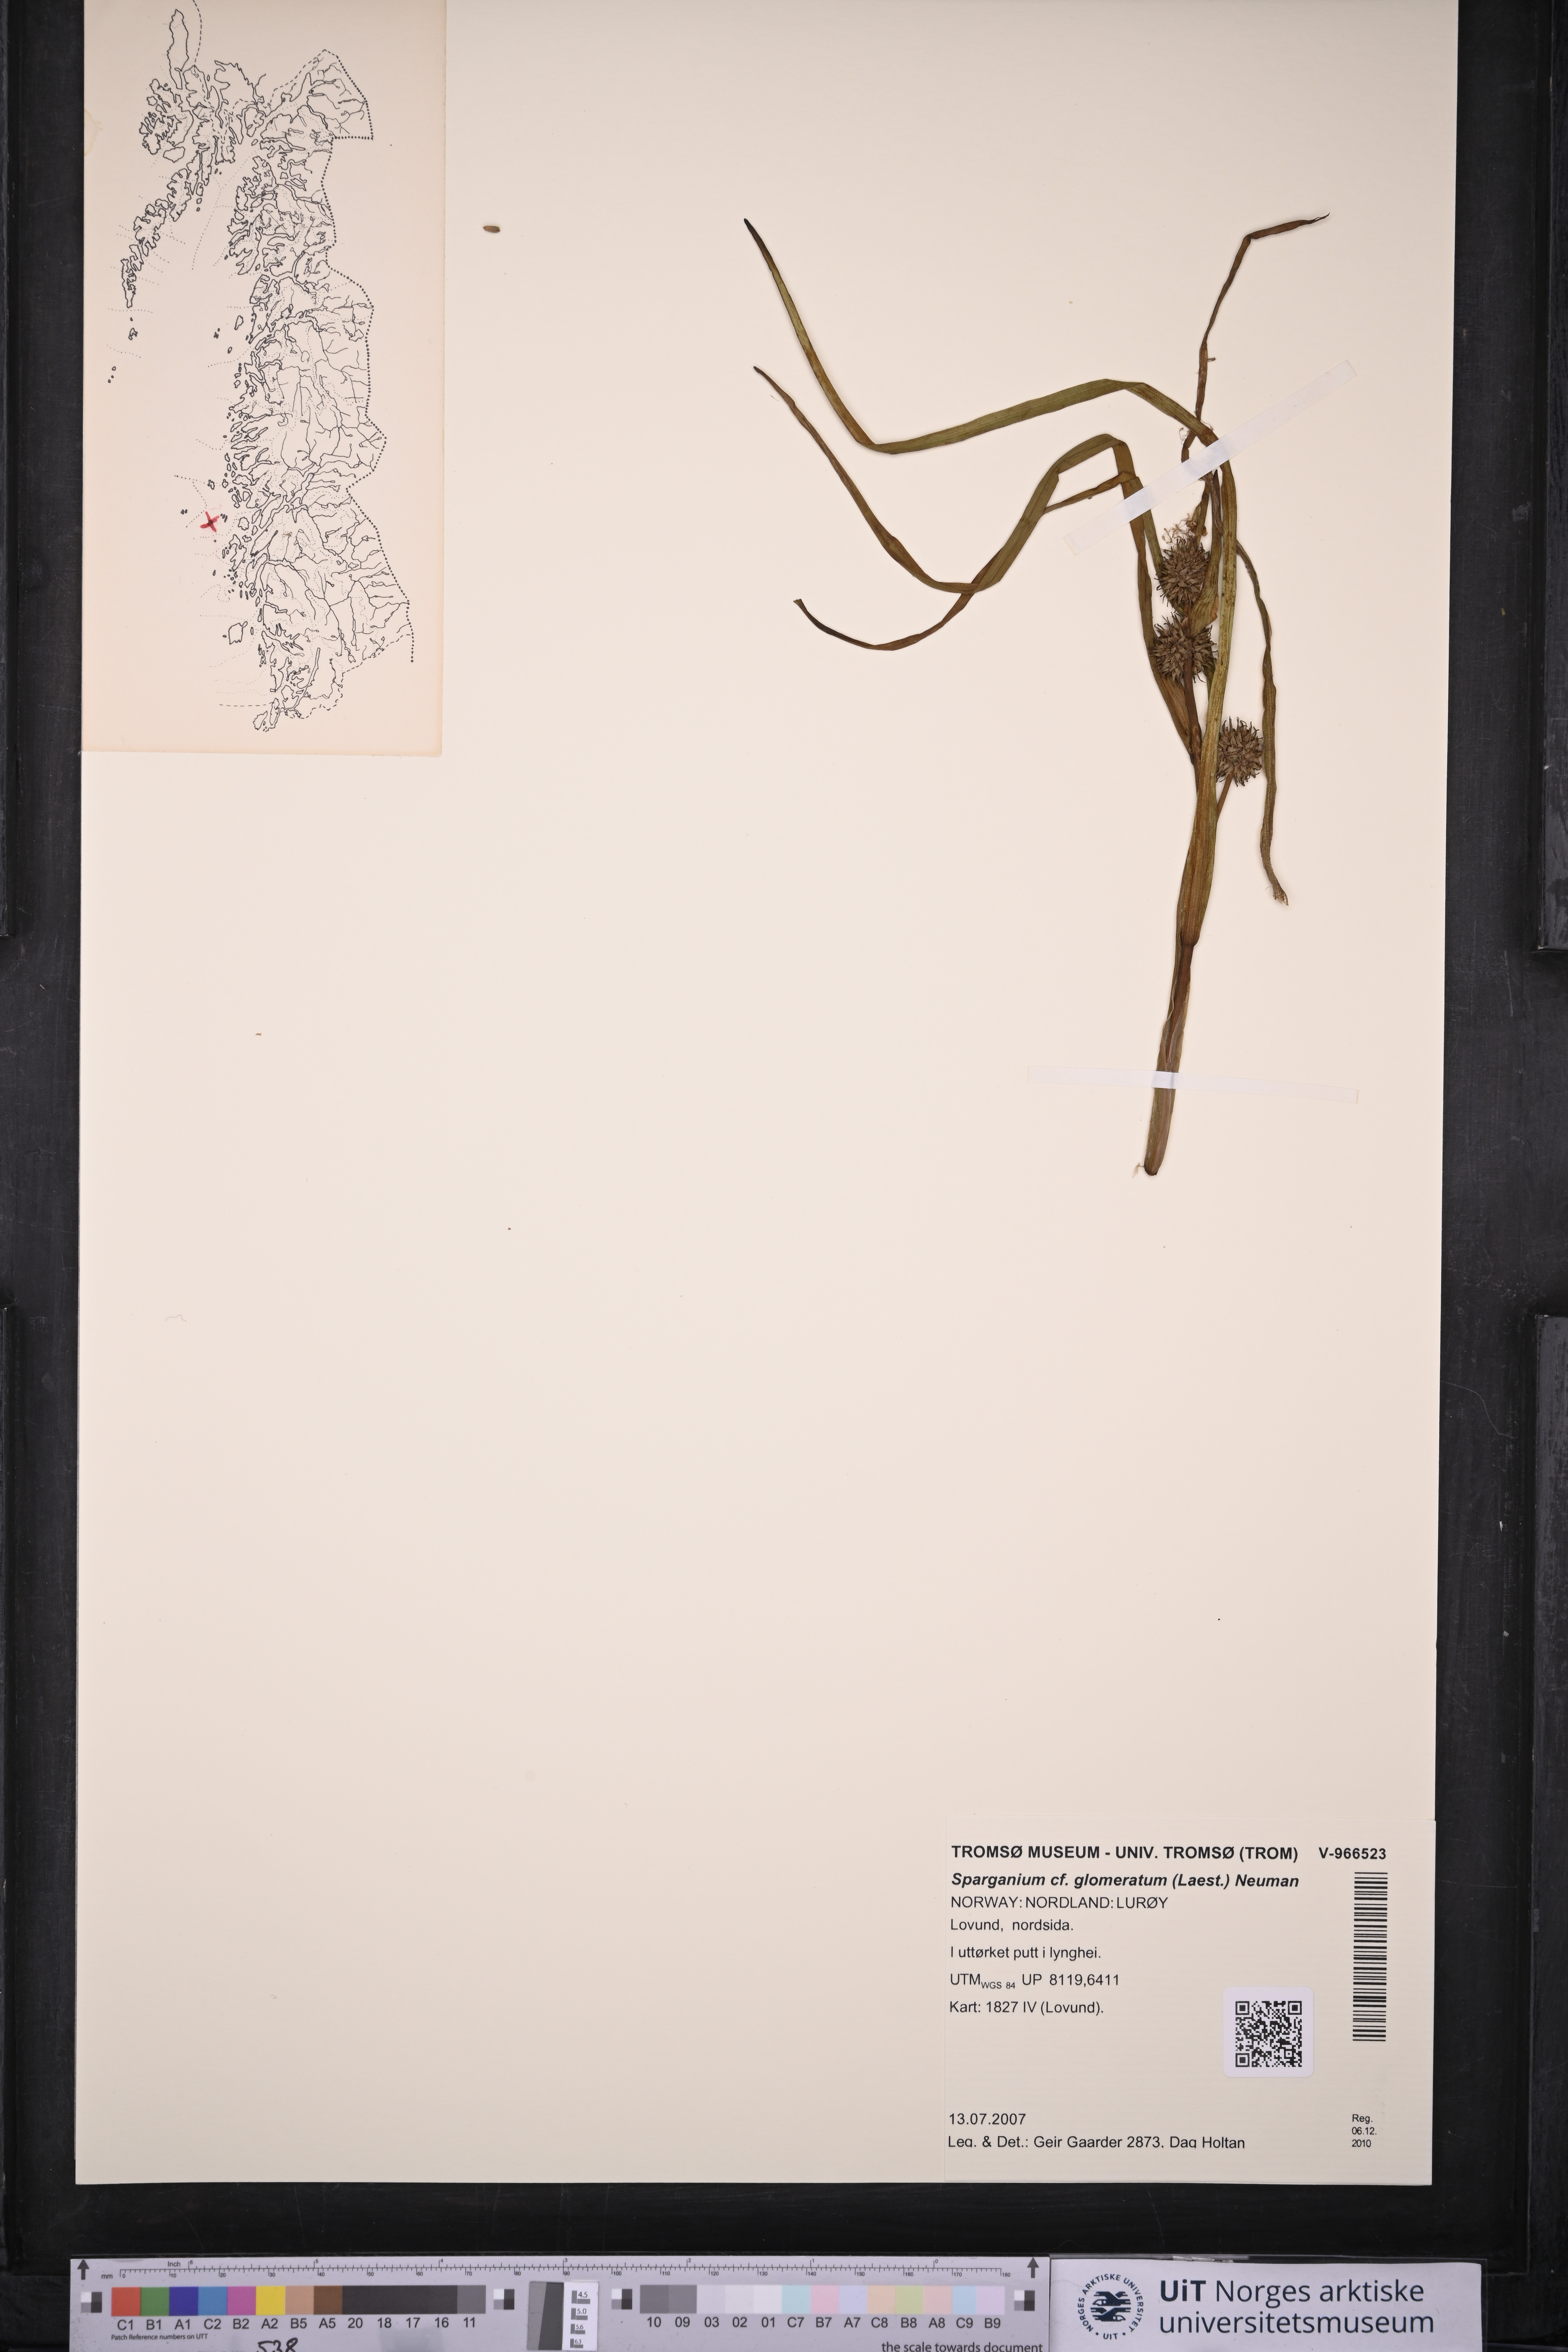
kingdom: Plantae
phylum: Tracheophyta
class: Liliopsida
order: Poales
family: Typhaceae
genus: Sparganium
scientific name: Sparganium glomeratum
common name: Clustered burreed
